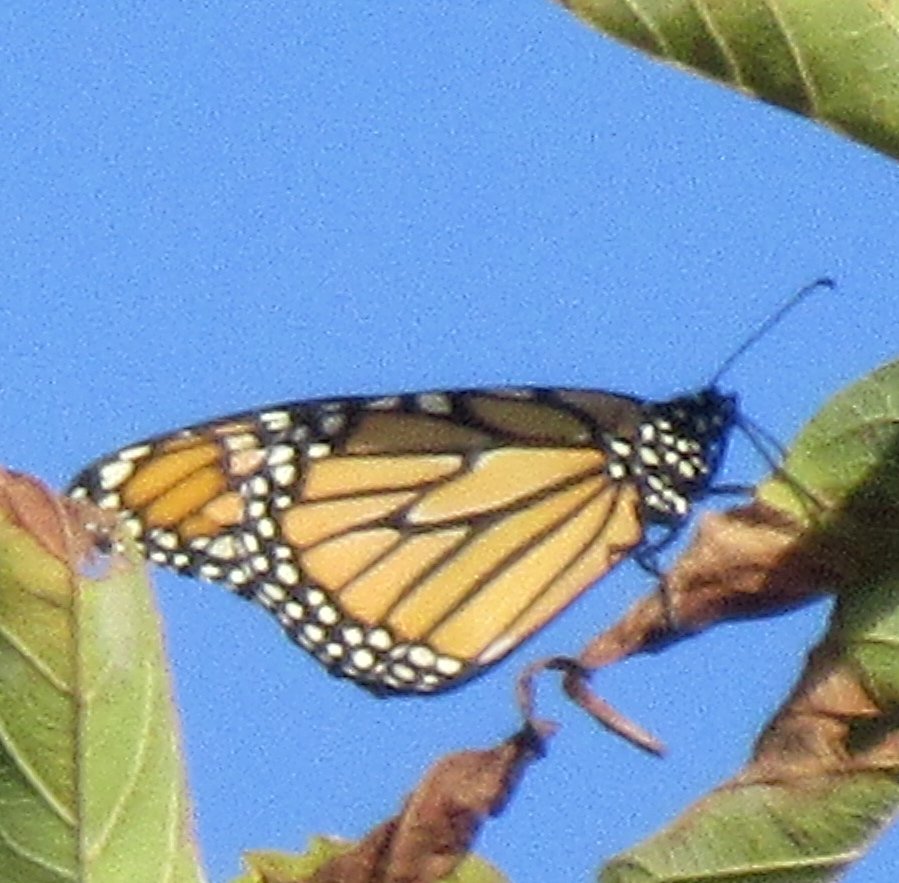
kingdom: Animalia
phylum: Arthropoda
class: Insecta
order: Lepidoptera
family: Nymphalidae
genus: Danaus
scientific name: Danaus plexippus
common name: Monarch
